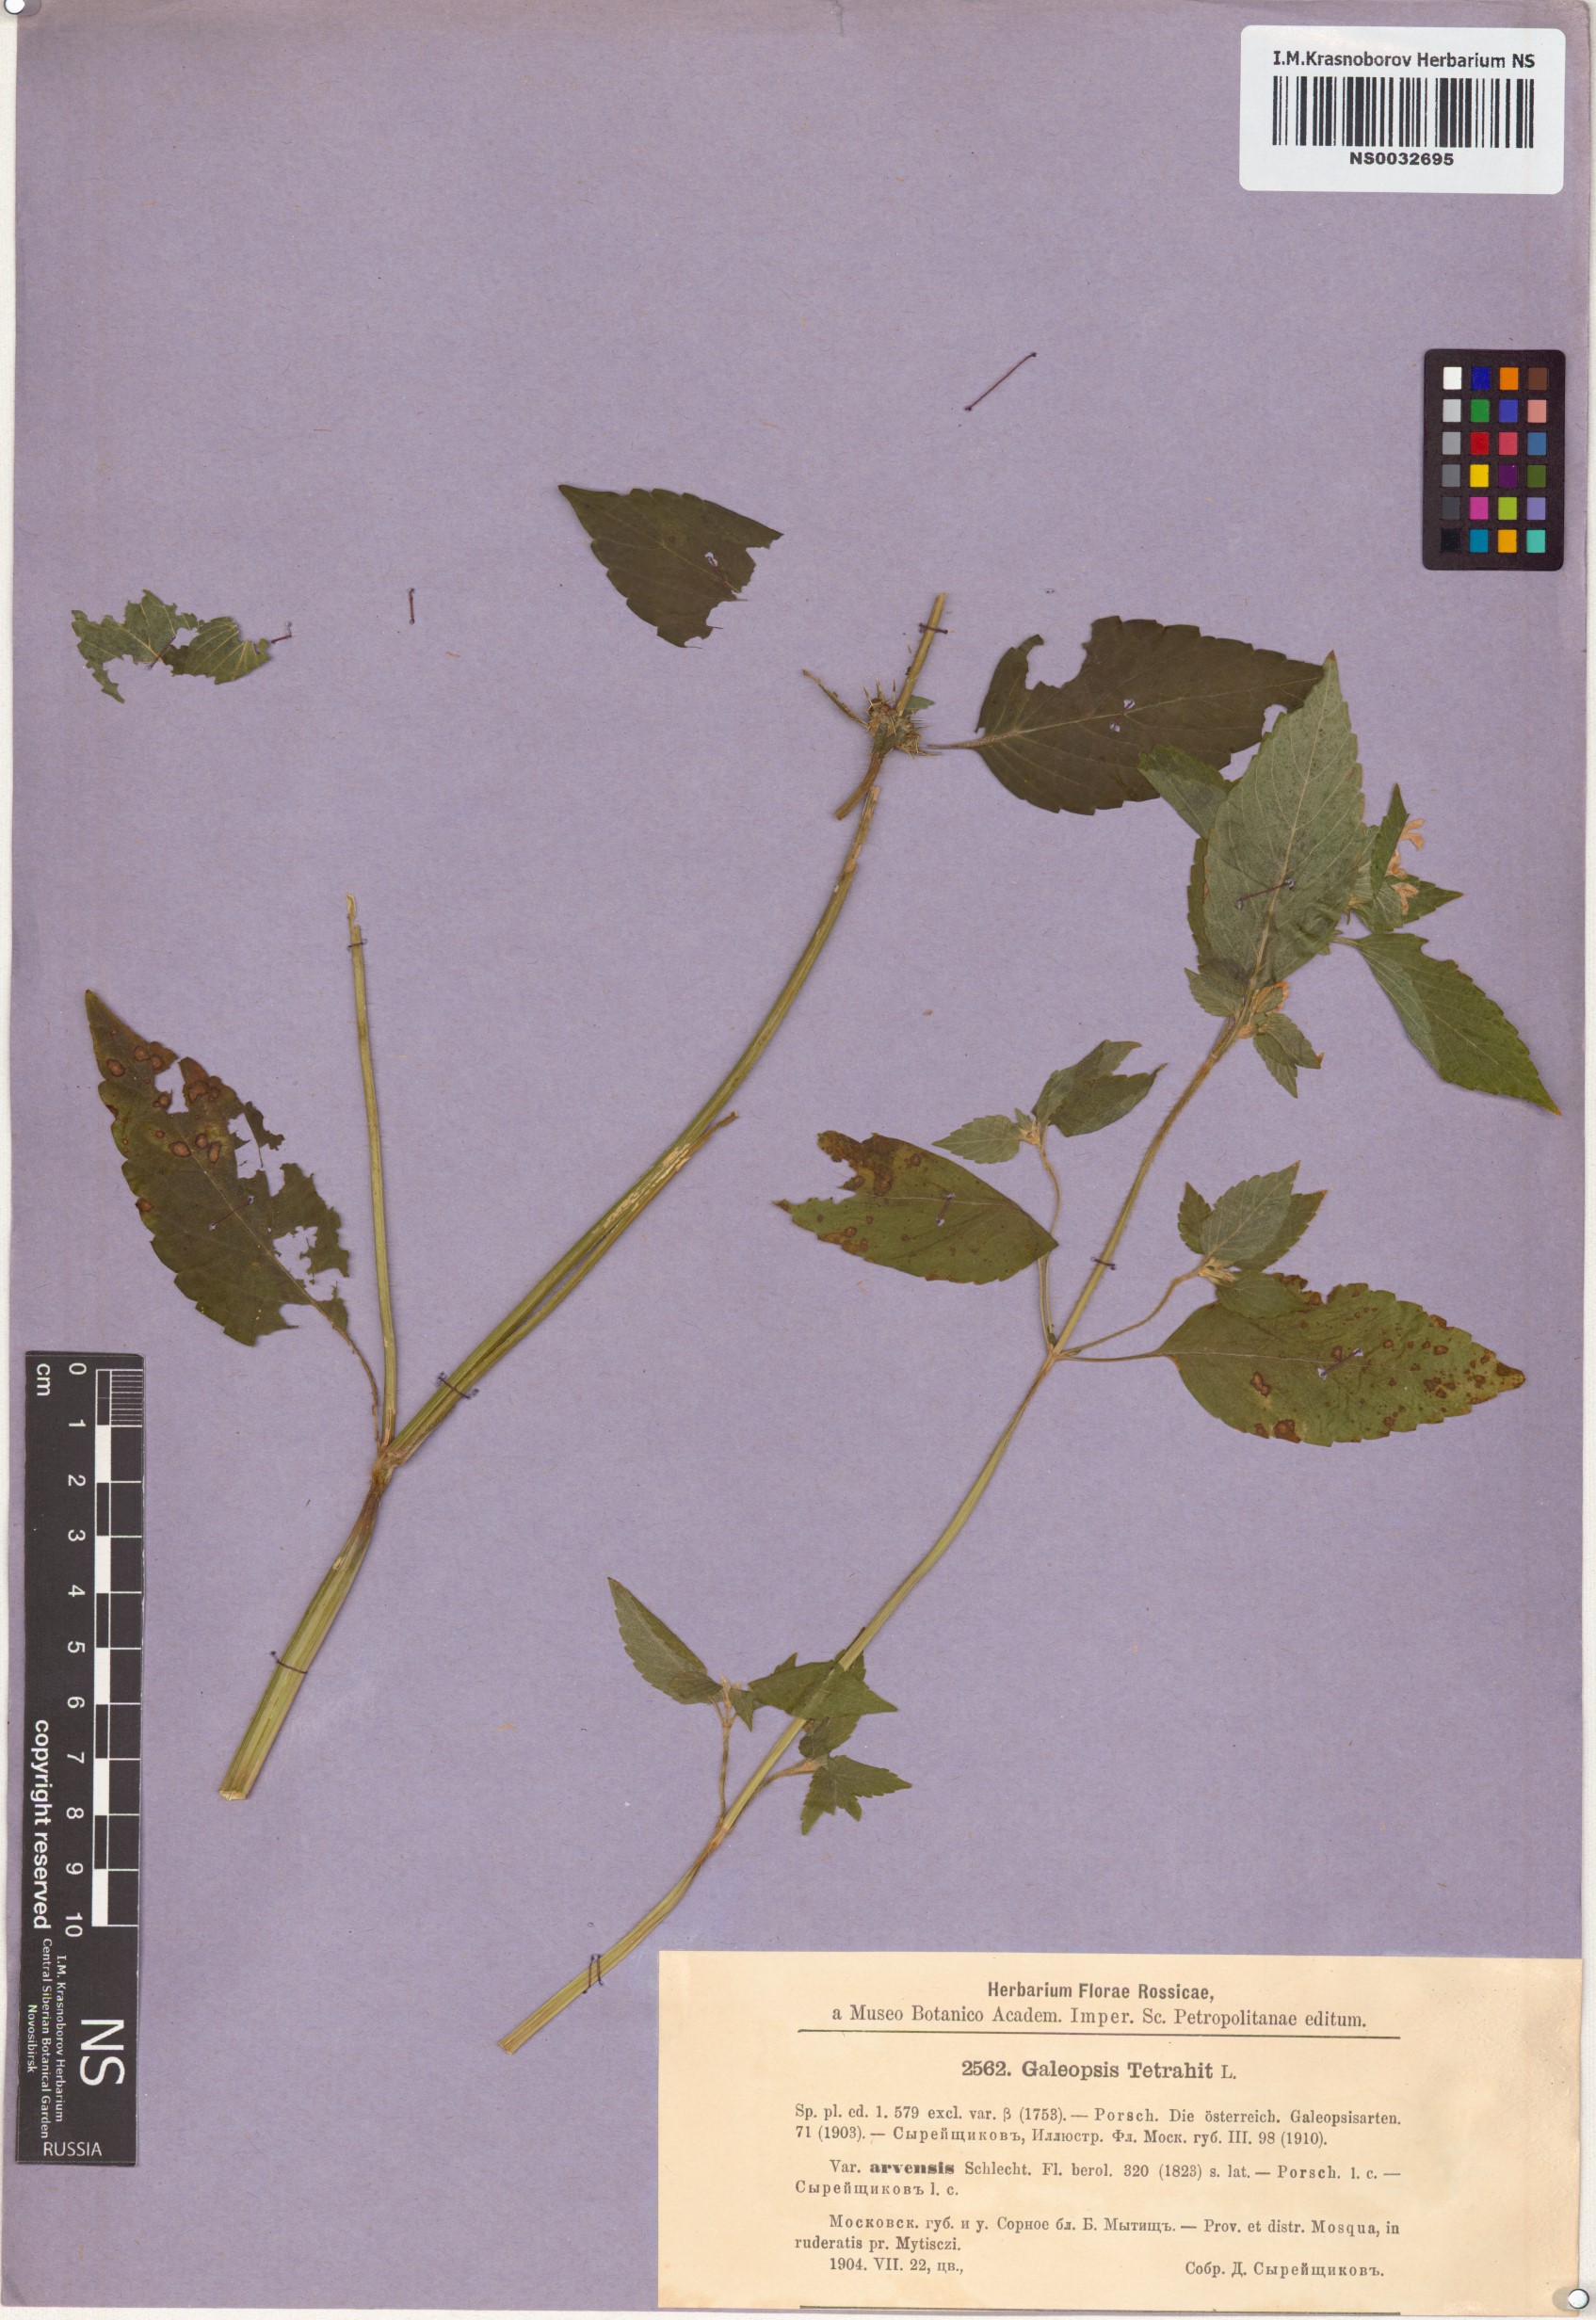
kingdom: Plantae
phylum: Tracheophyta
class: Magnoliopsida
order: Lamiales
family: Lamiaceae
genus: Galeopsis
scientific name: Galeopsis tetrahit
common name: Common hemp-nettle
